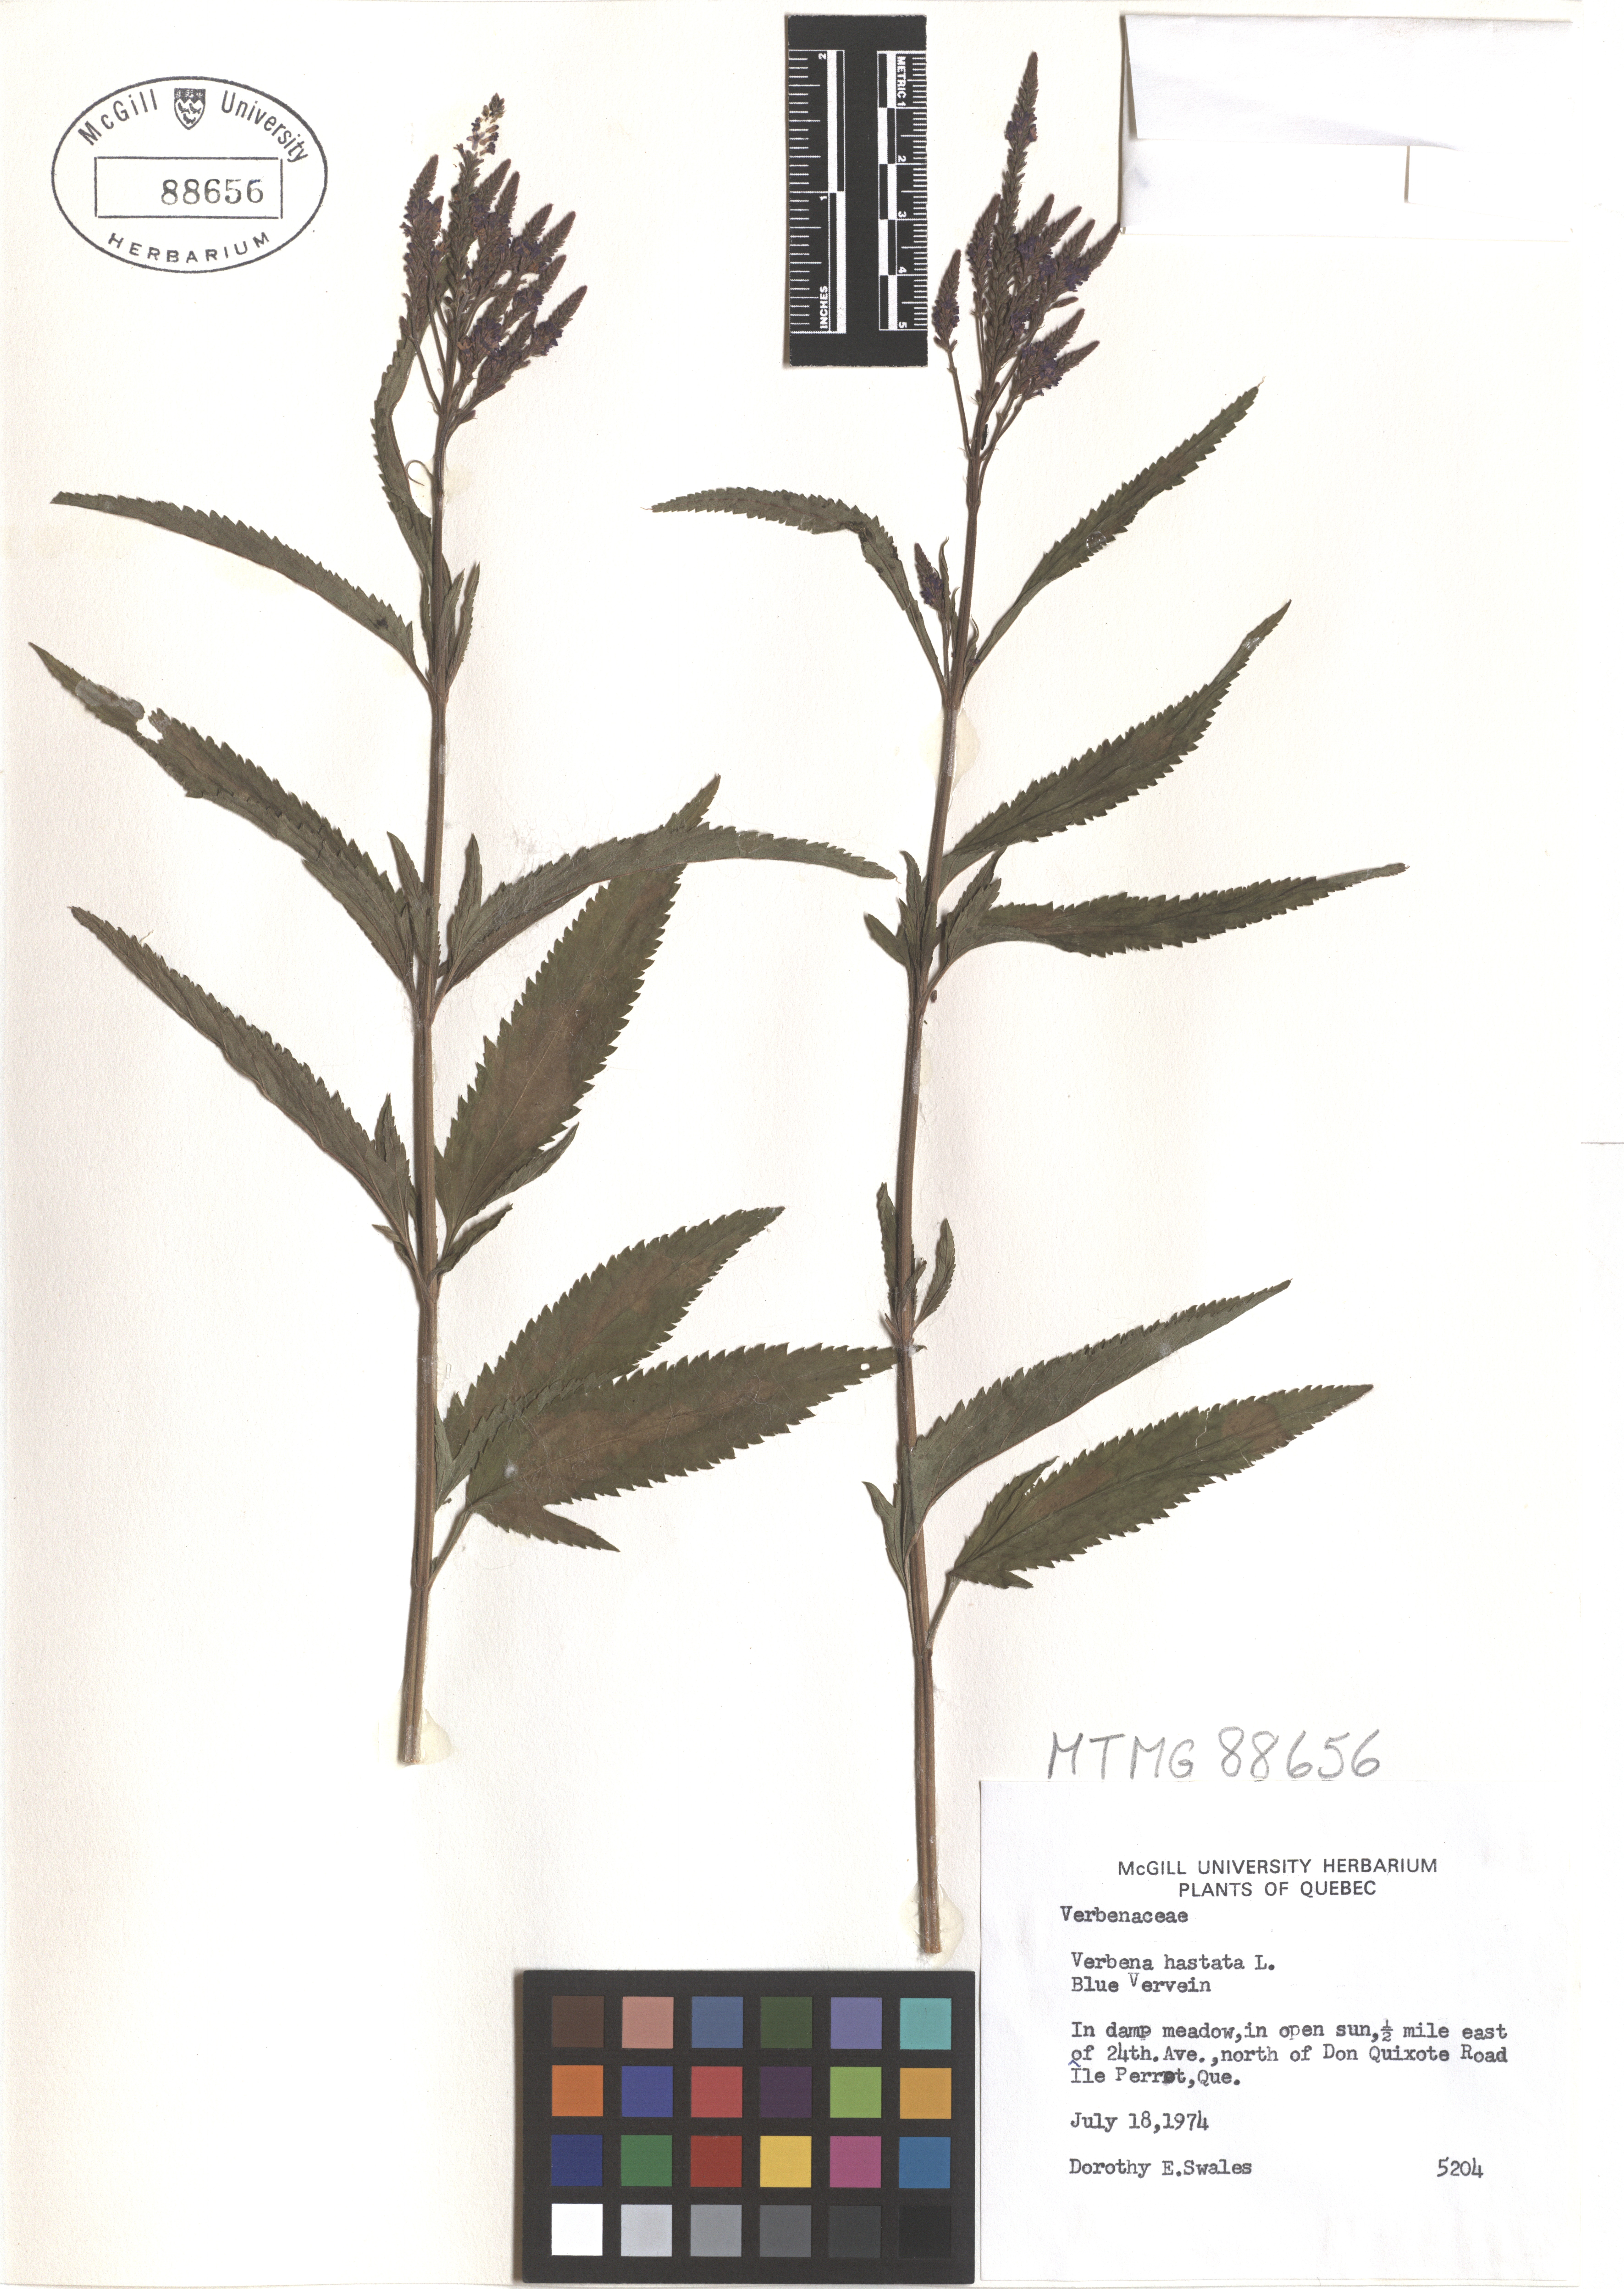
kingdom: Plantae
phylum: Tracheophyta
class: Magnoliopsida
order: Lamiales
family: Verbenaceae
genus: Verbena
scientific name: Verbena hastata
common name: American blue vervain
